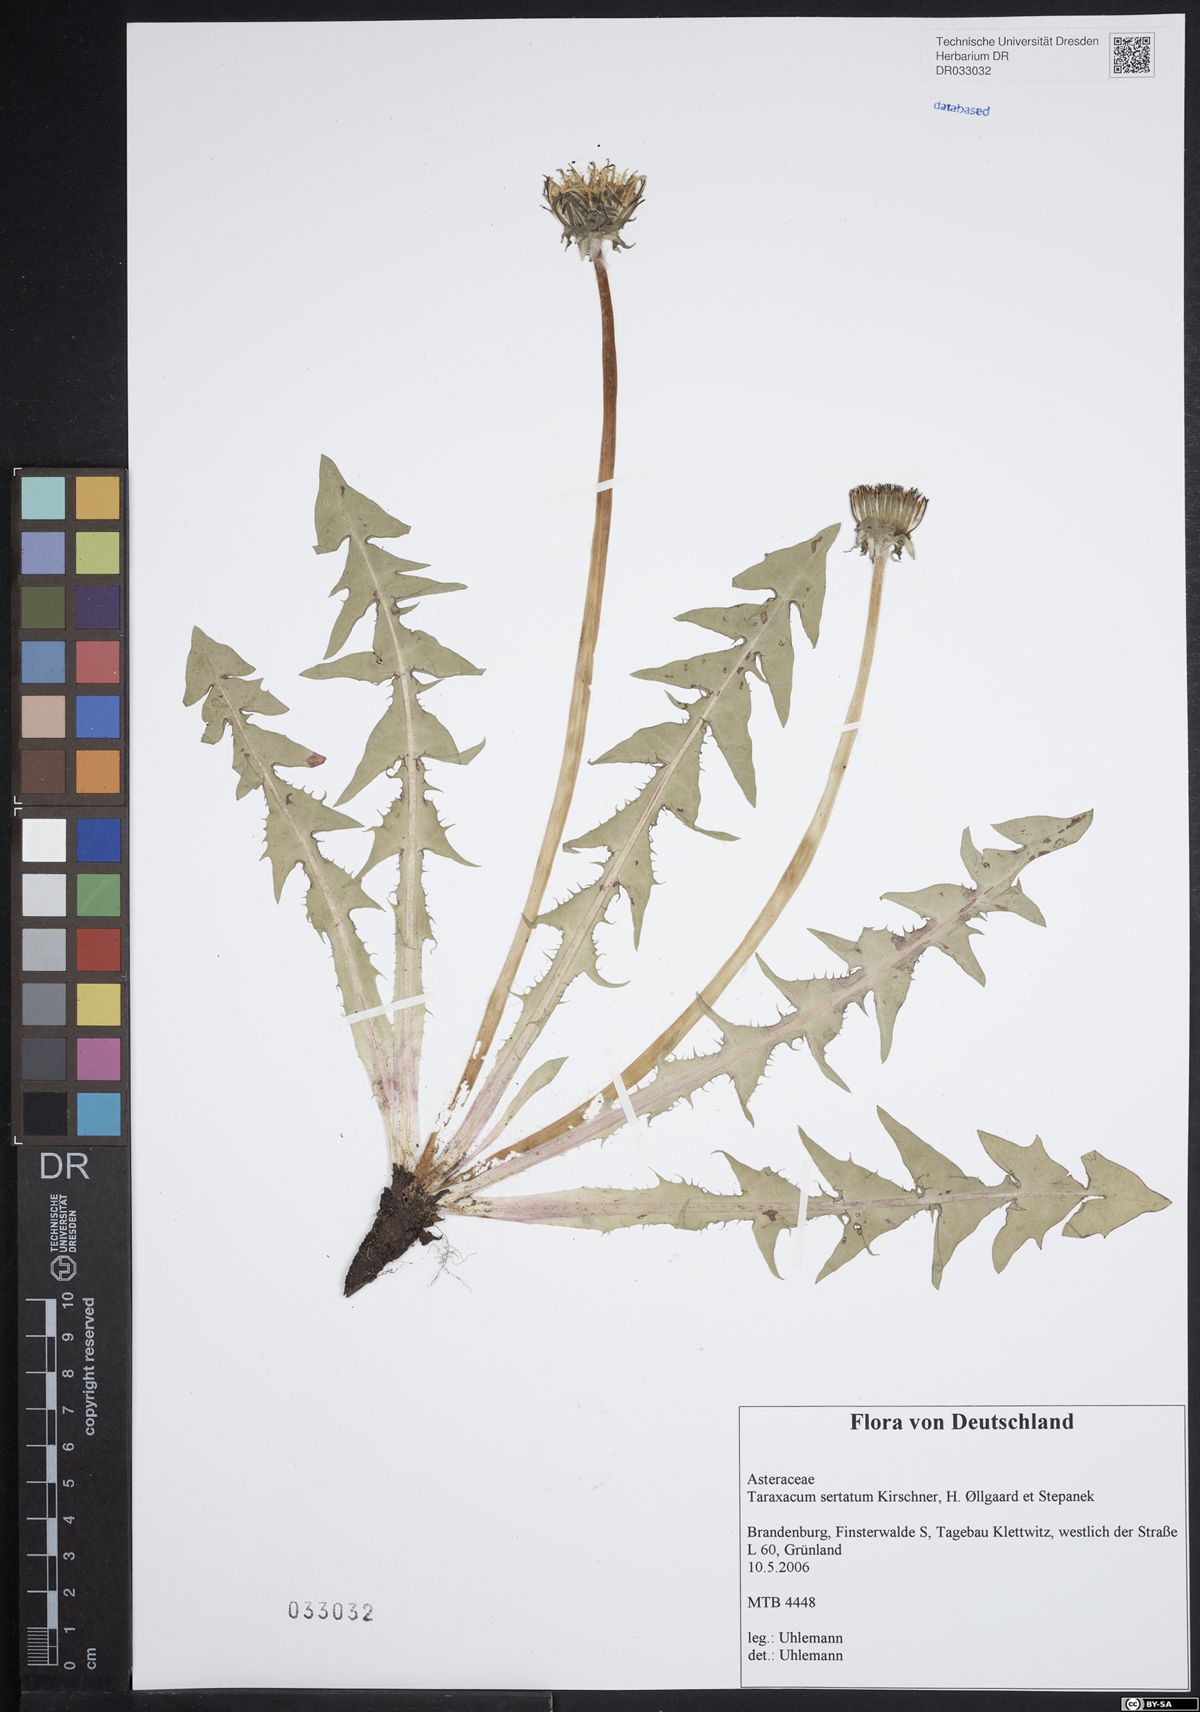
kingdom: Plantae
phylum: Tracheophyta
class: Magnoliopsida
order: Asterales
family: Asteraceae
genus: Taraxacum
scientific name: Taraxacum sertatum
